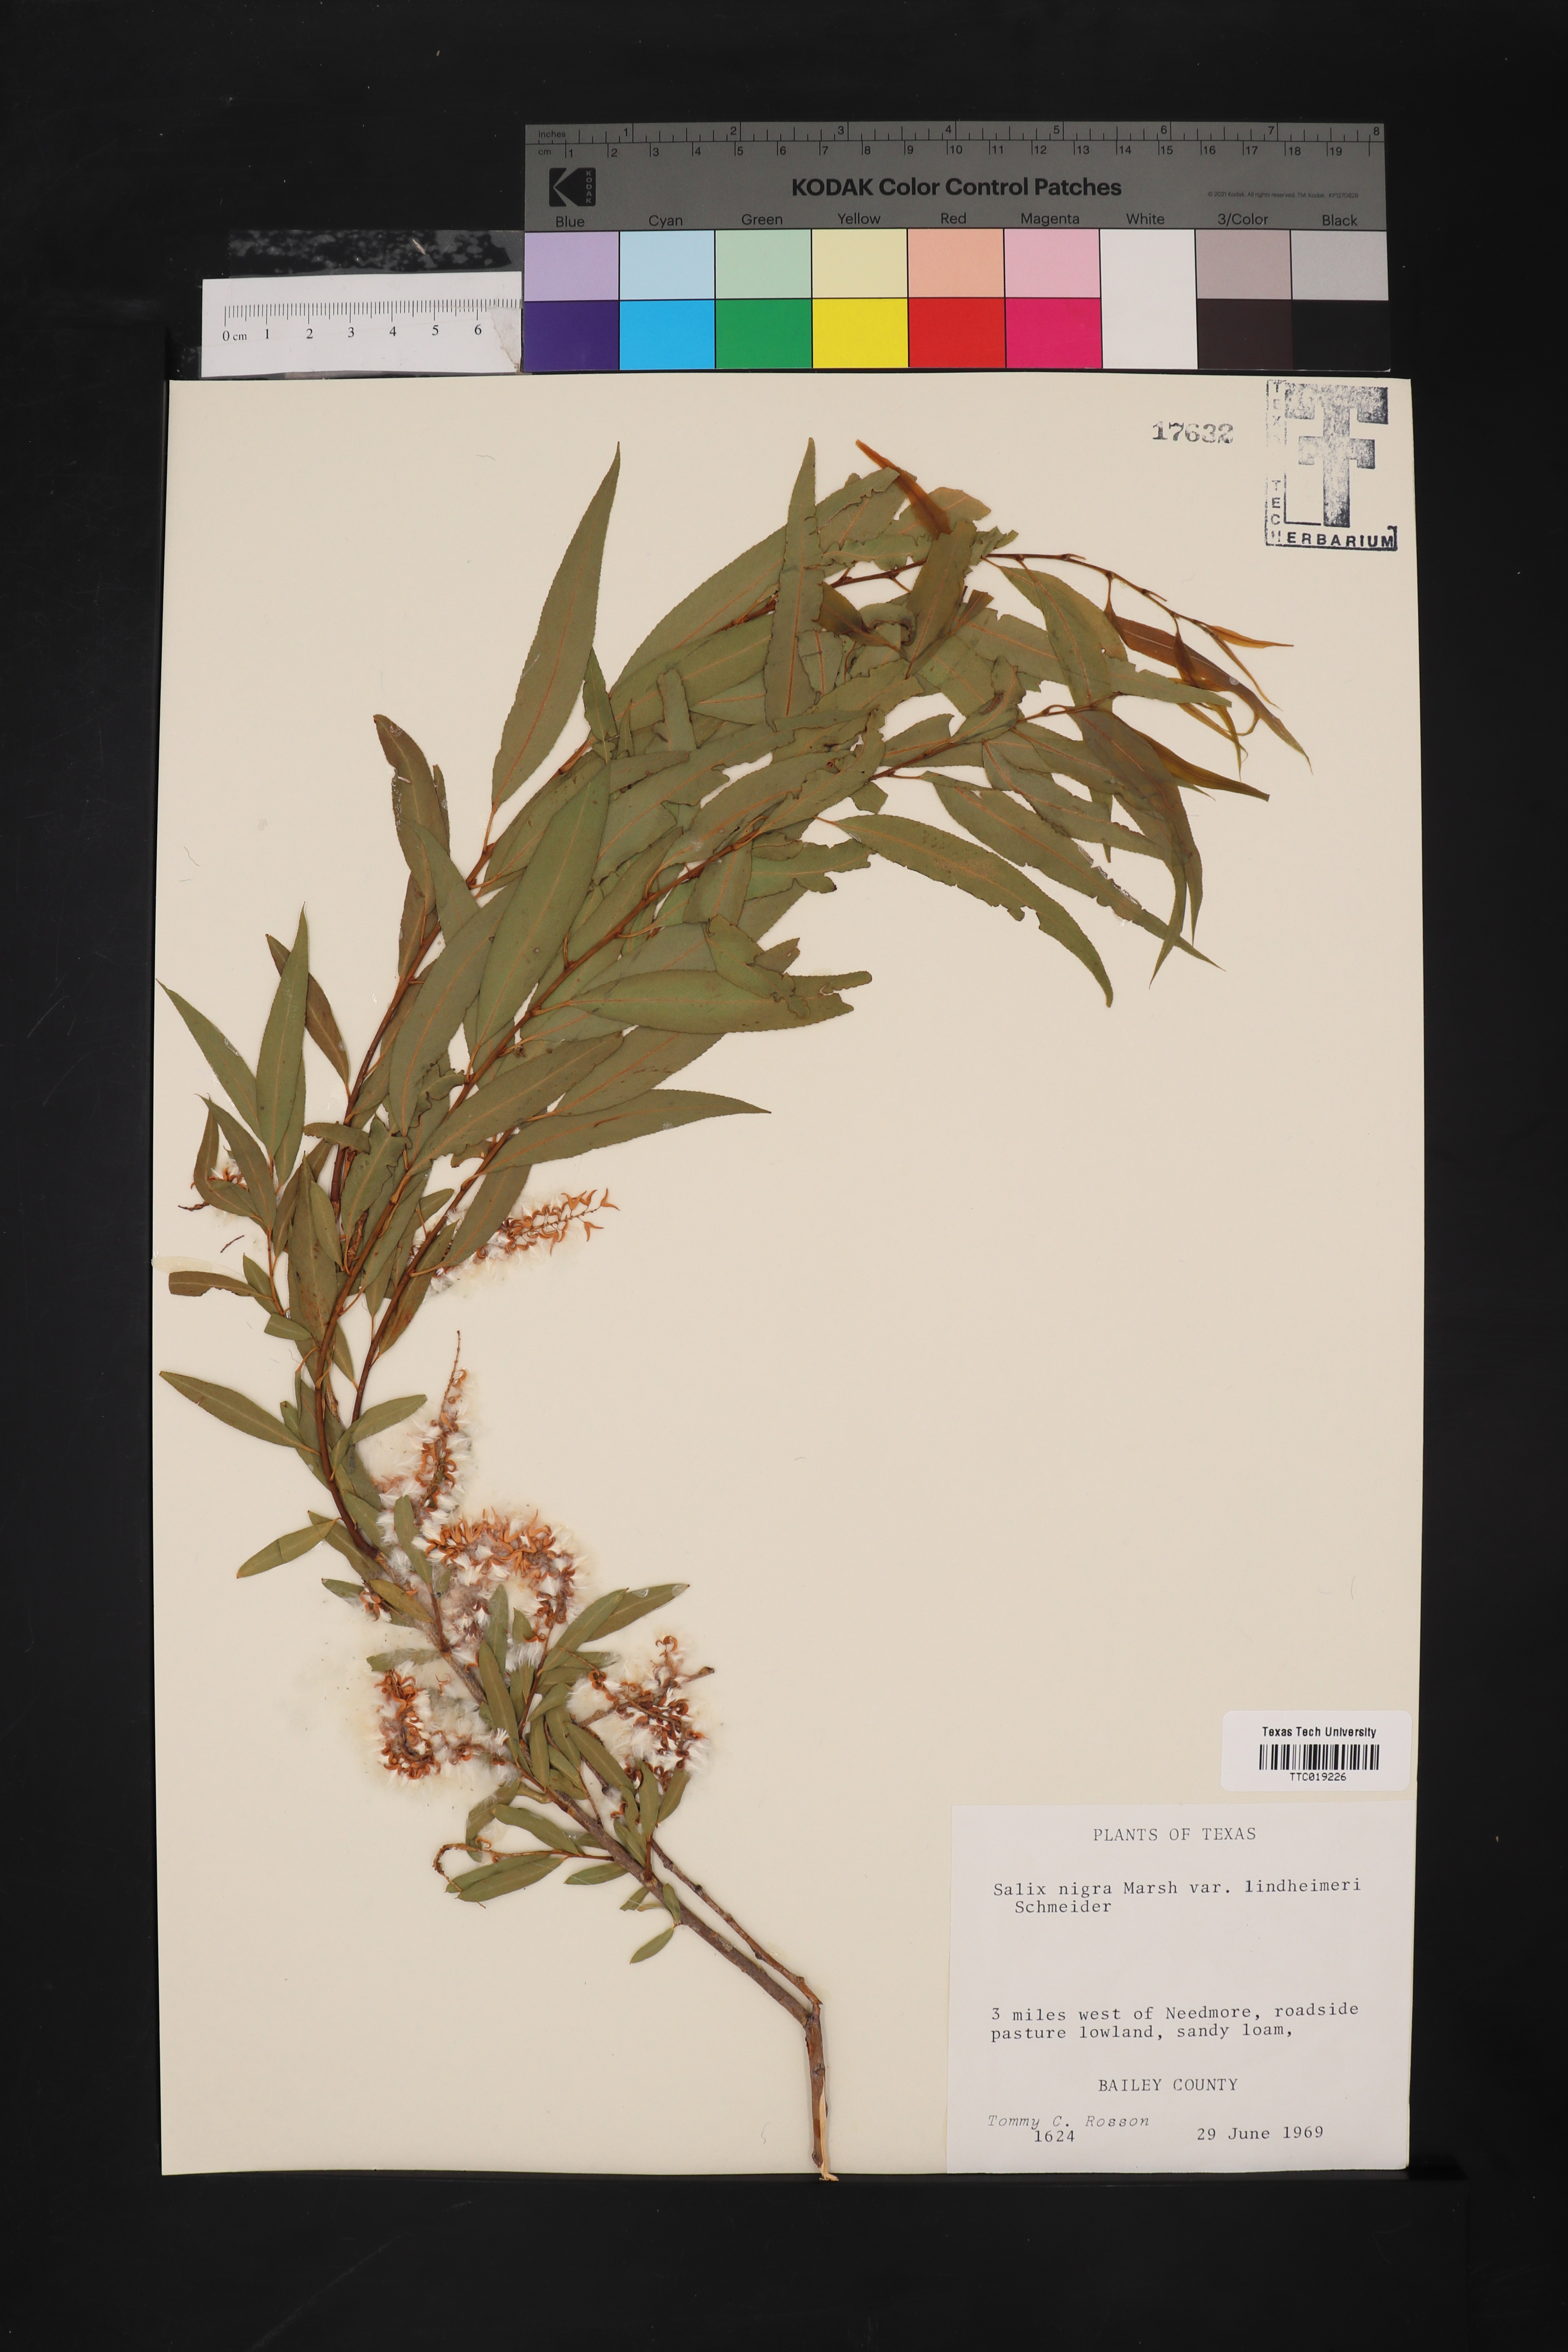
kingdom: Plantae
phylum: Tracheophyta
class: Magnoliopsida
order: Malpighiales
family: Salicaceae
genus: Salix
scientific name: Salix nigra
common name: Black willow
